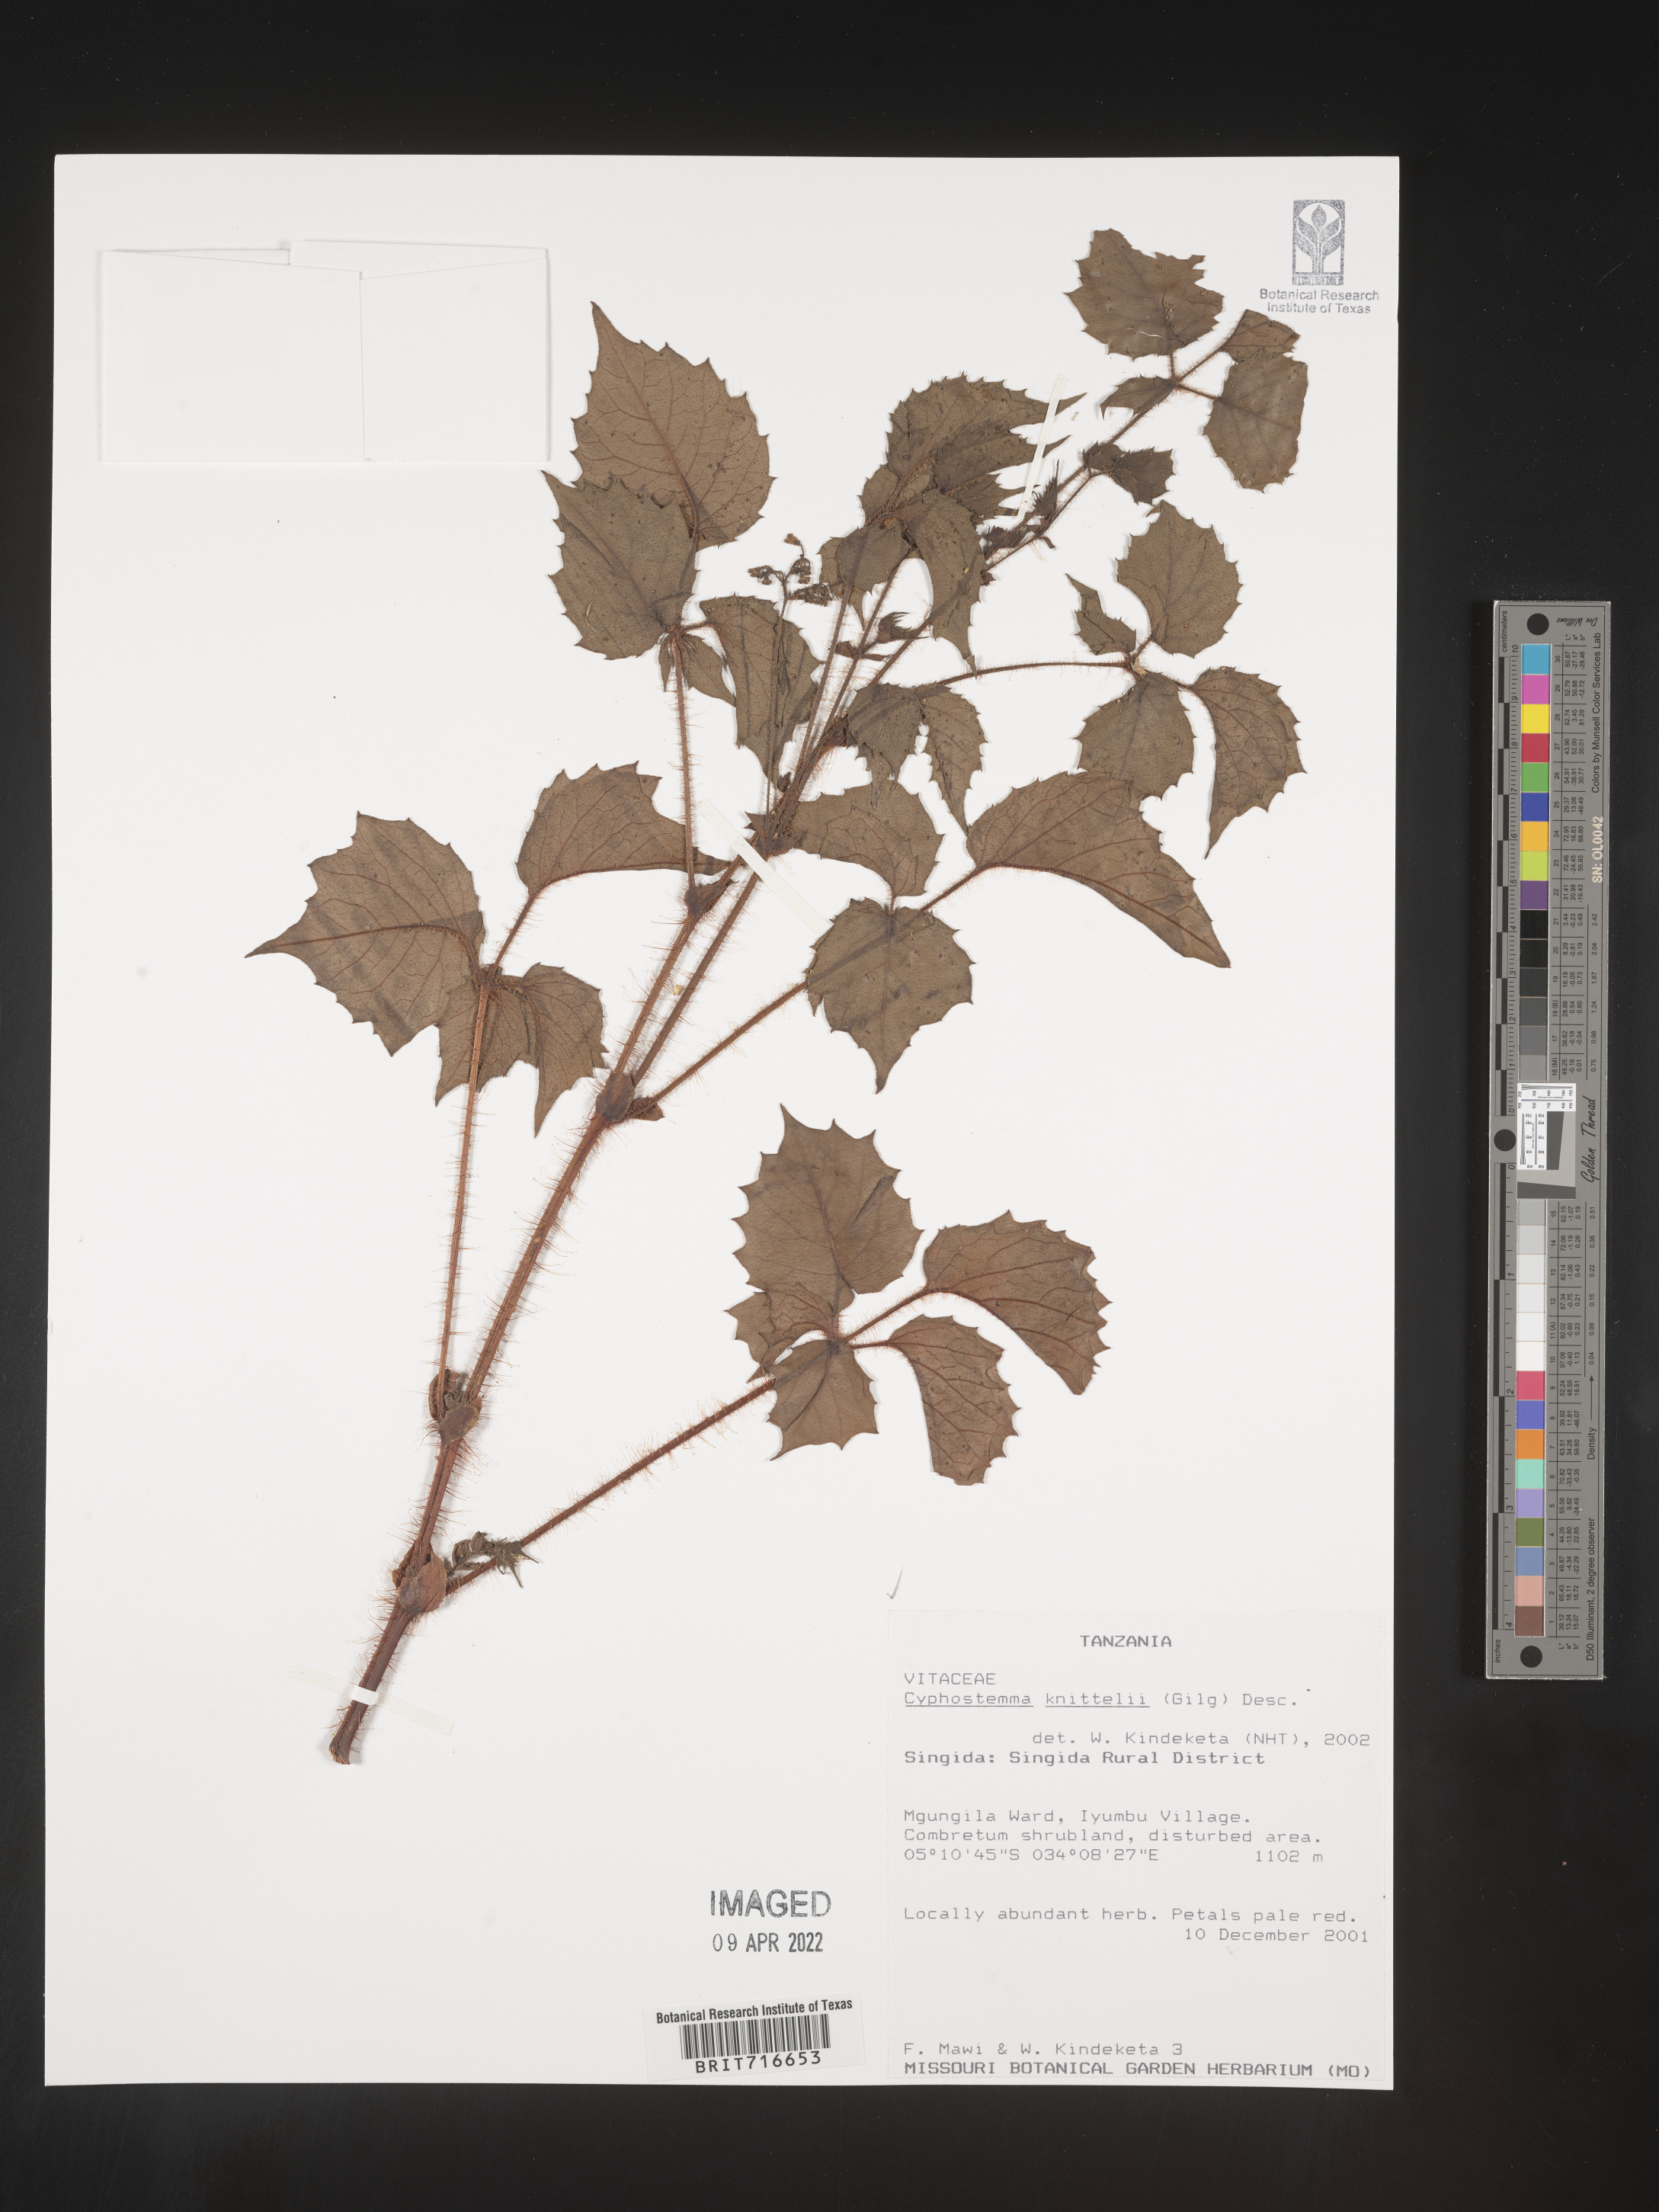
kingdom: Plantae
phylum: Tracheophyta
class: Magnoliopsida
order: Vitales
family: Vitaceae
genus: Cyphostemma
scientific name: Cyphostemma
